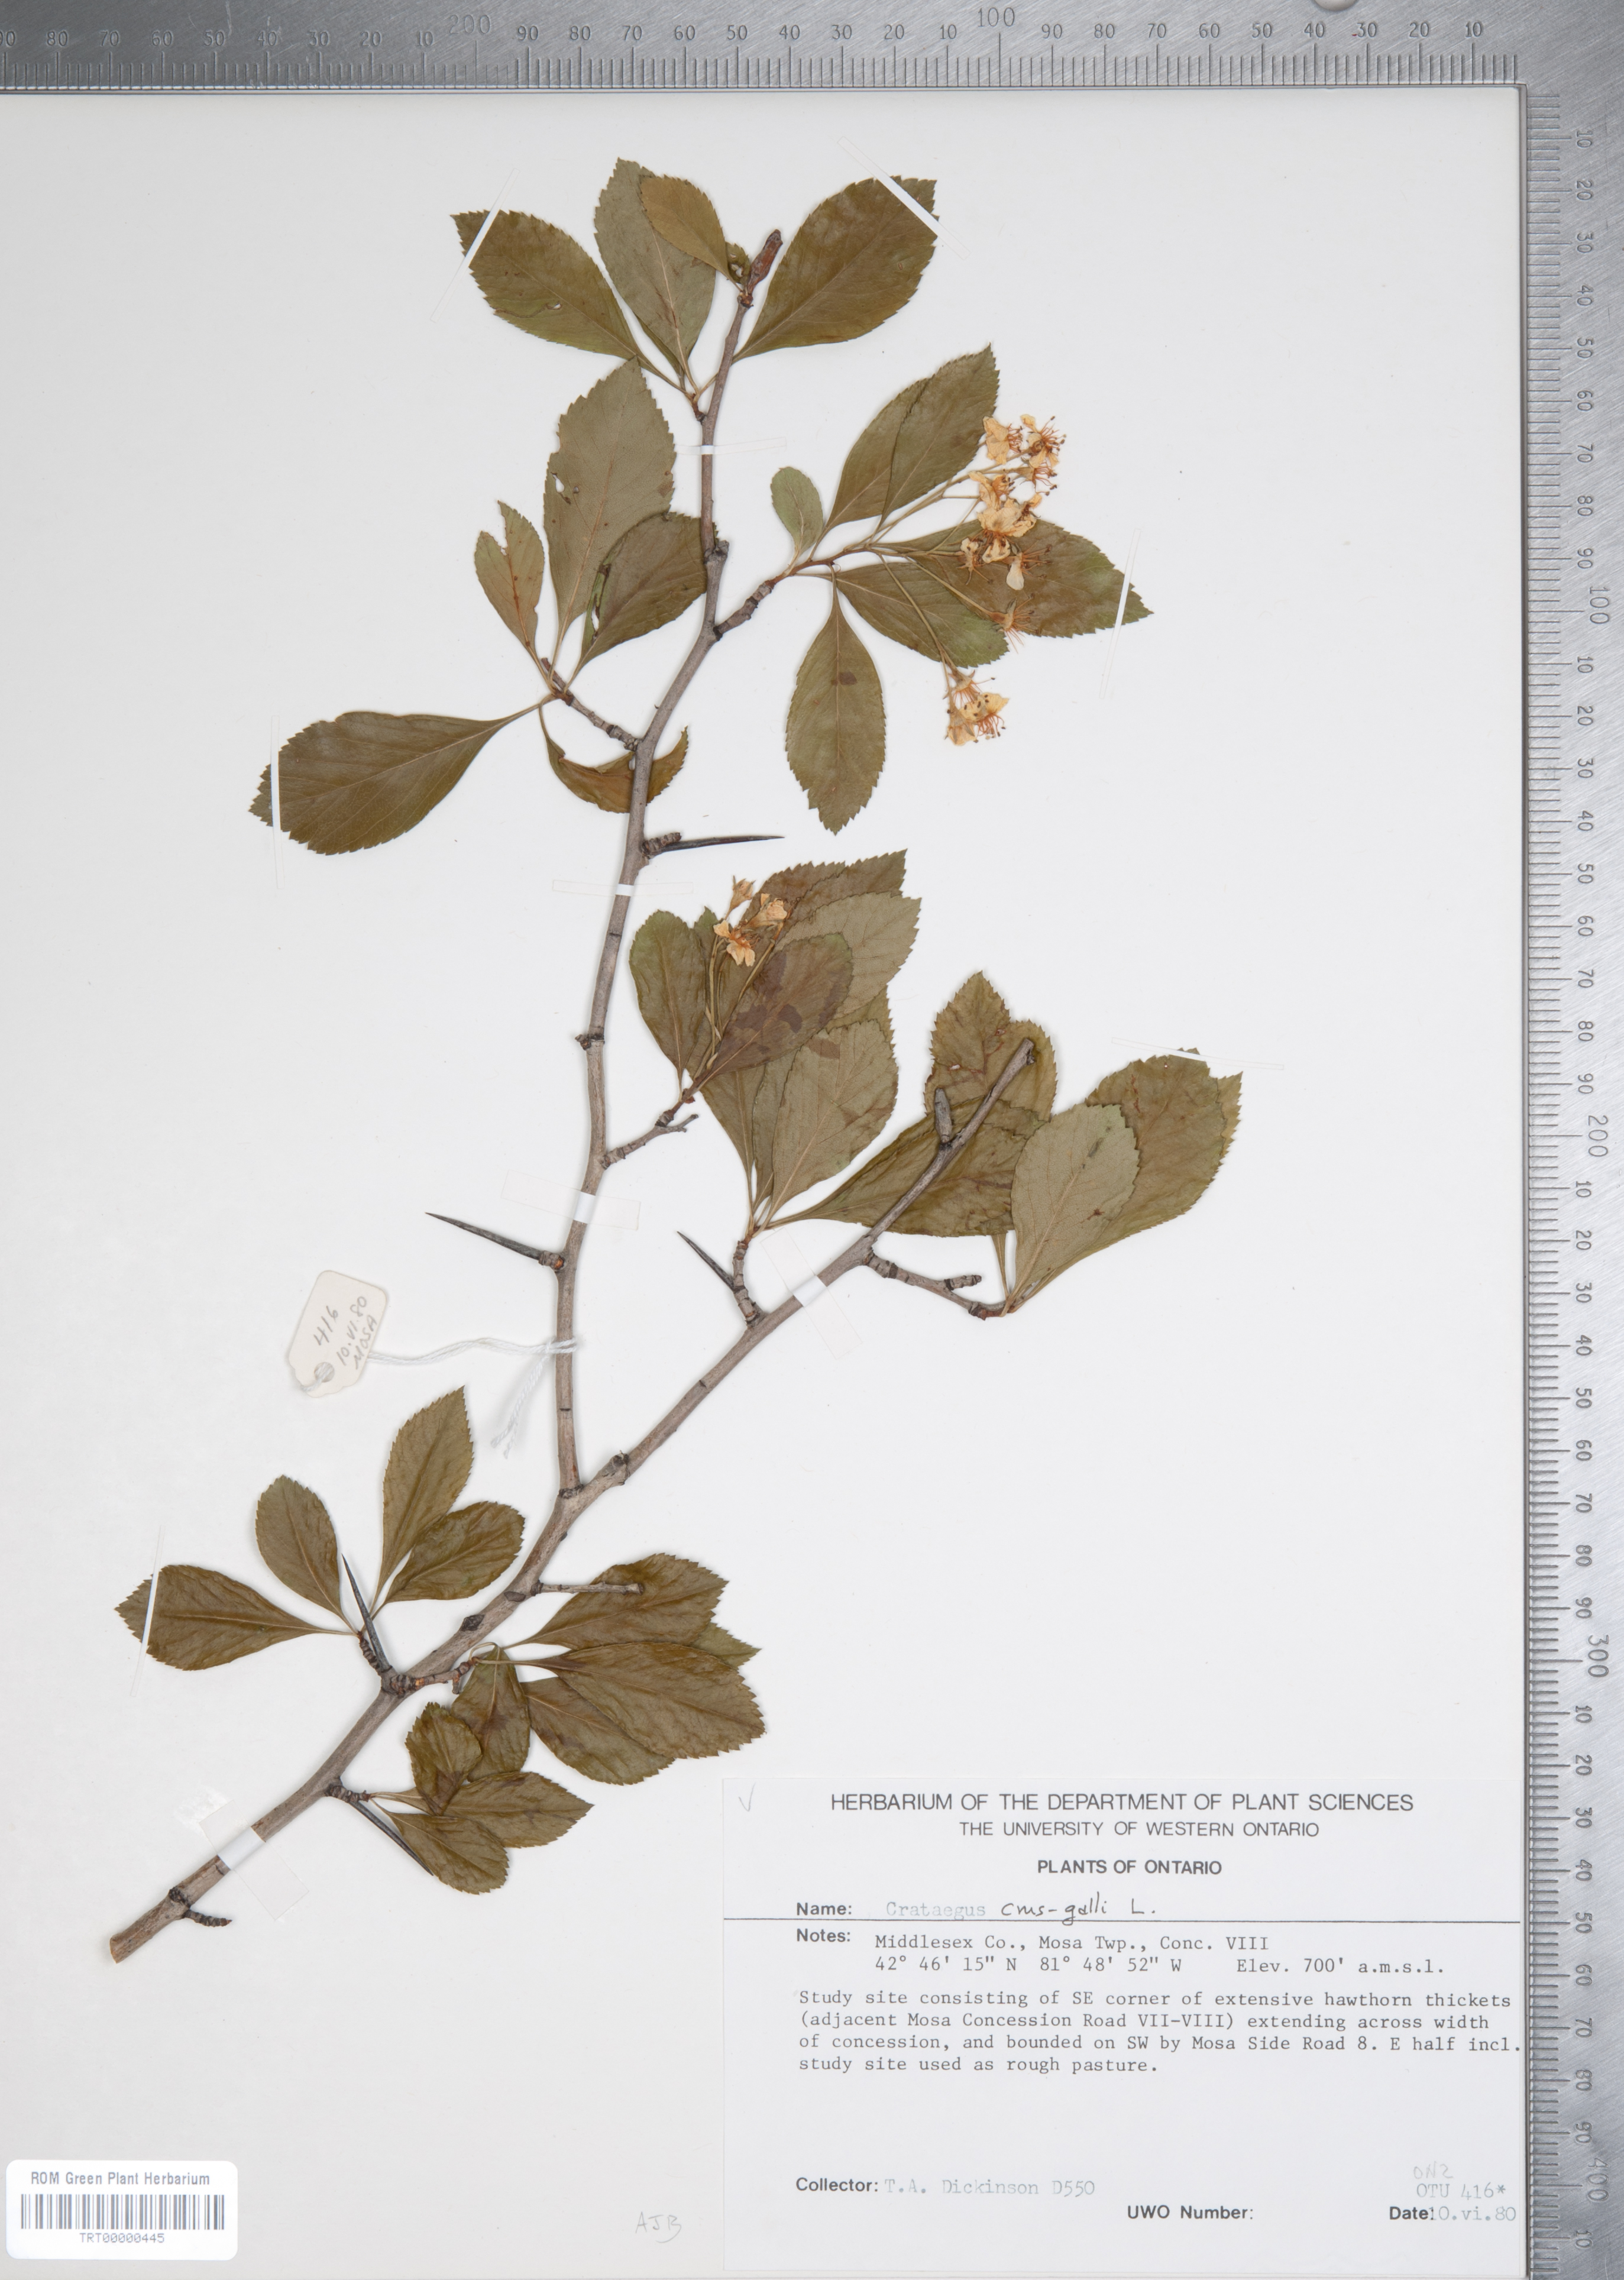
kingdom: Plantae
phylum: Tracheophyta
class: Magnoliopsida
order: Rosales
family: Rosaceae
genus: Crataegus
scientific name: Crataegus crus-galli
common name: Cockspurthorn
